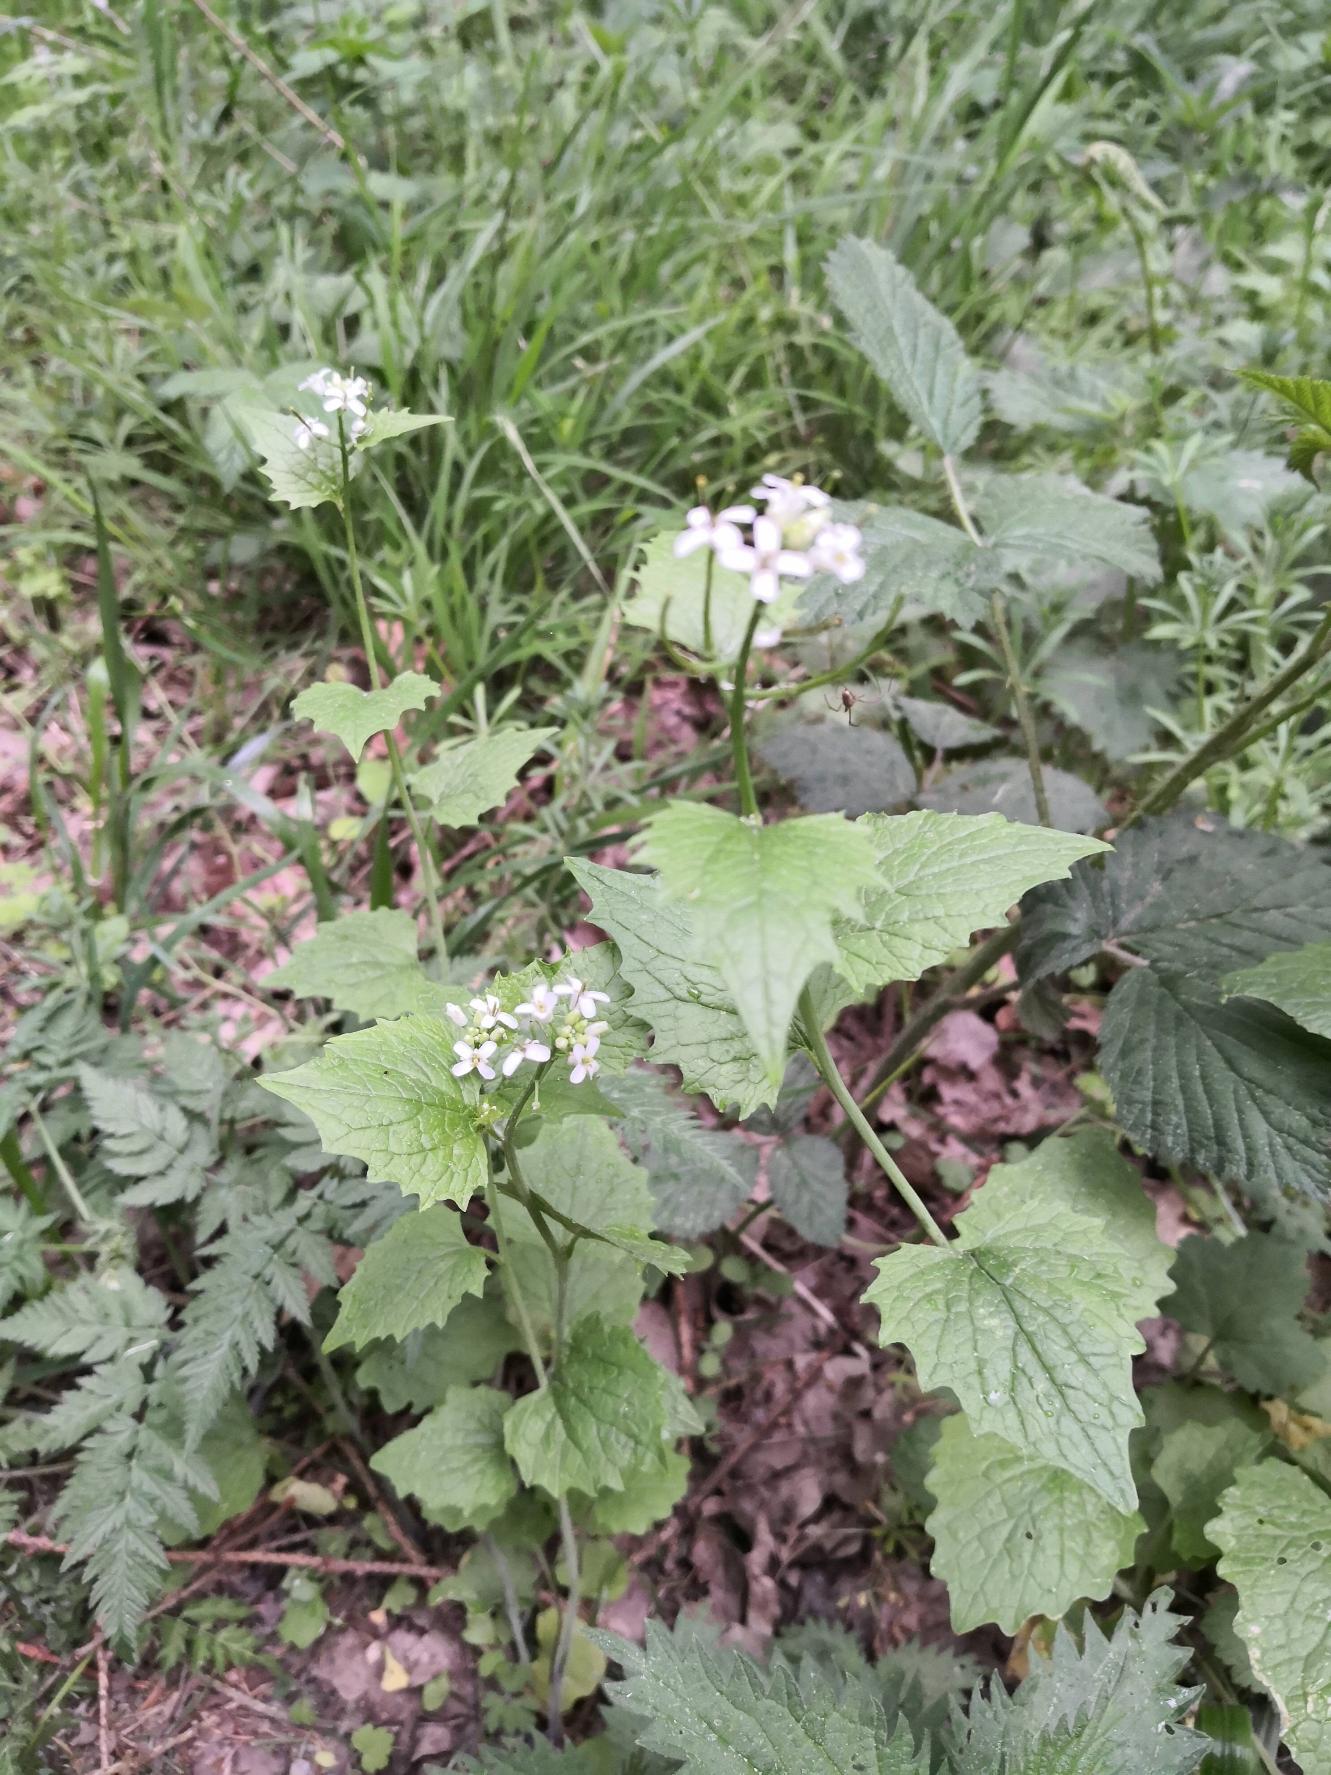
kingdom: Plantae
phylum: Tracheophyta
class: Magnoliopsida
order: Brassicales
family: Brassicaceae
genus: Alliaria
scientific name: Alliaria petiolata
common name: Løgkarse
